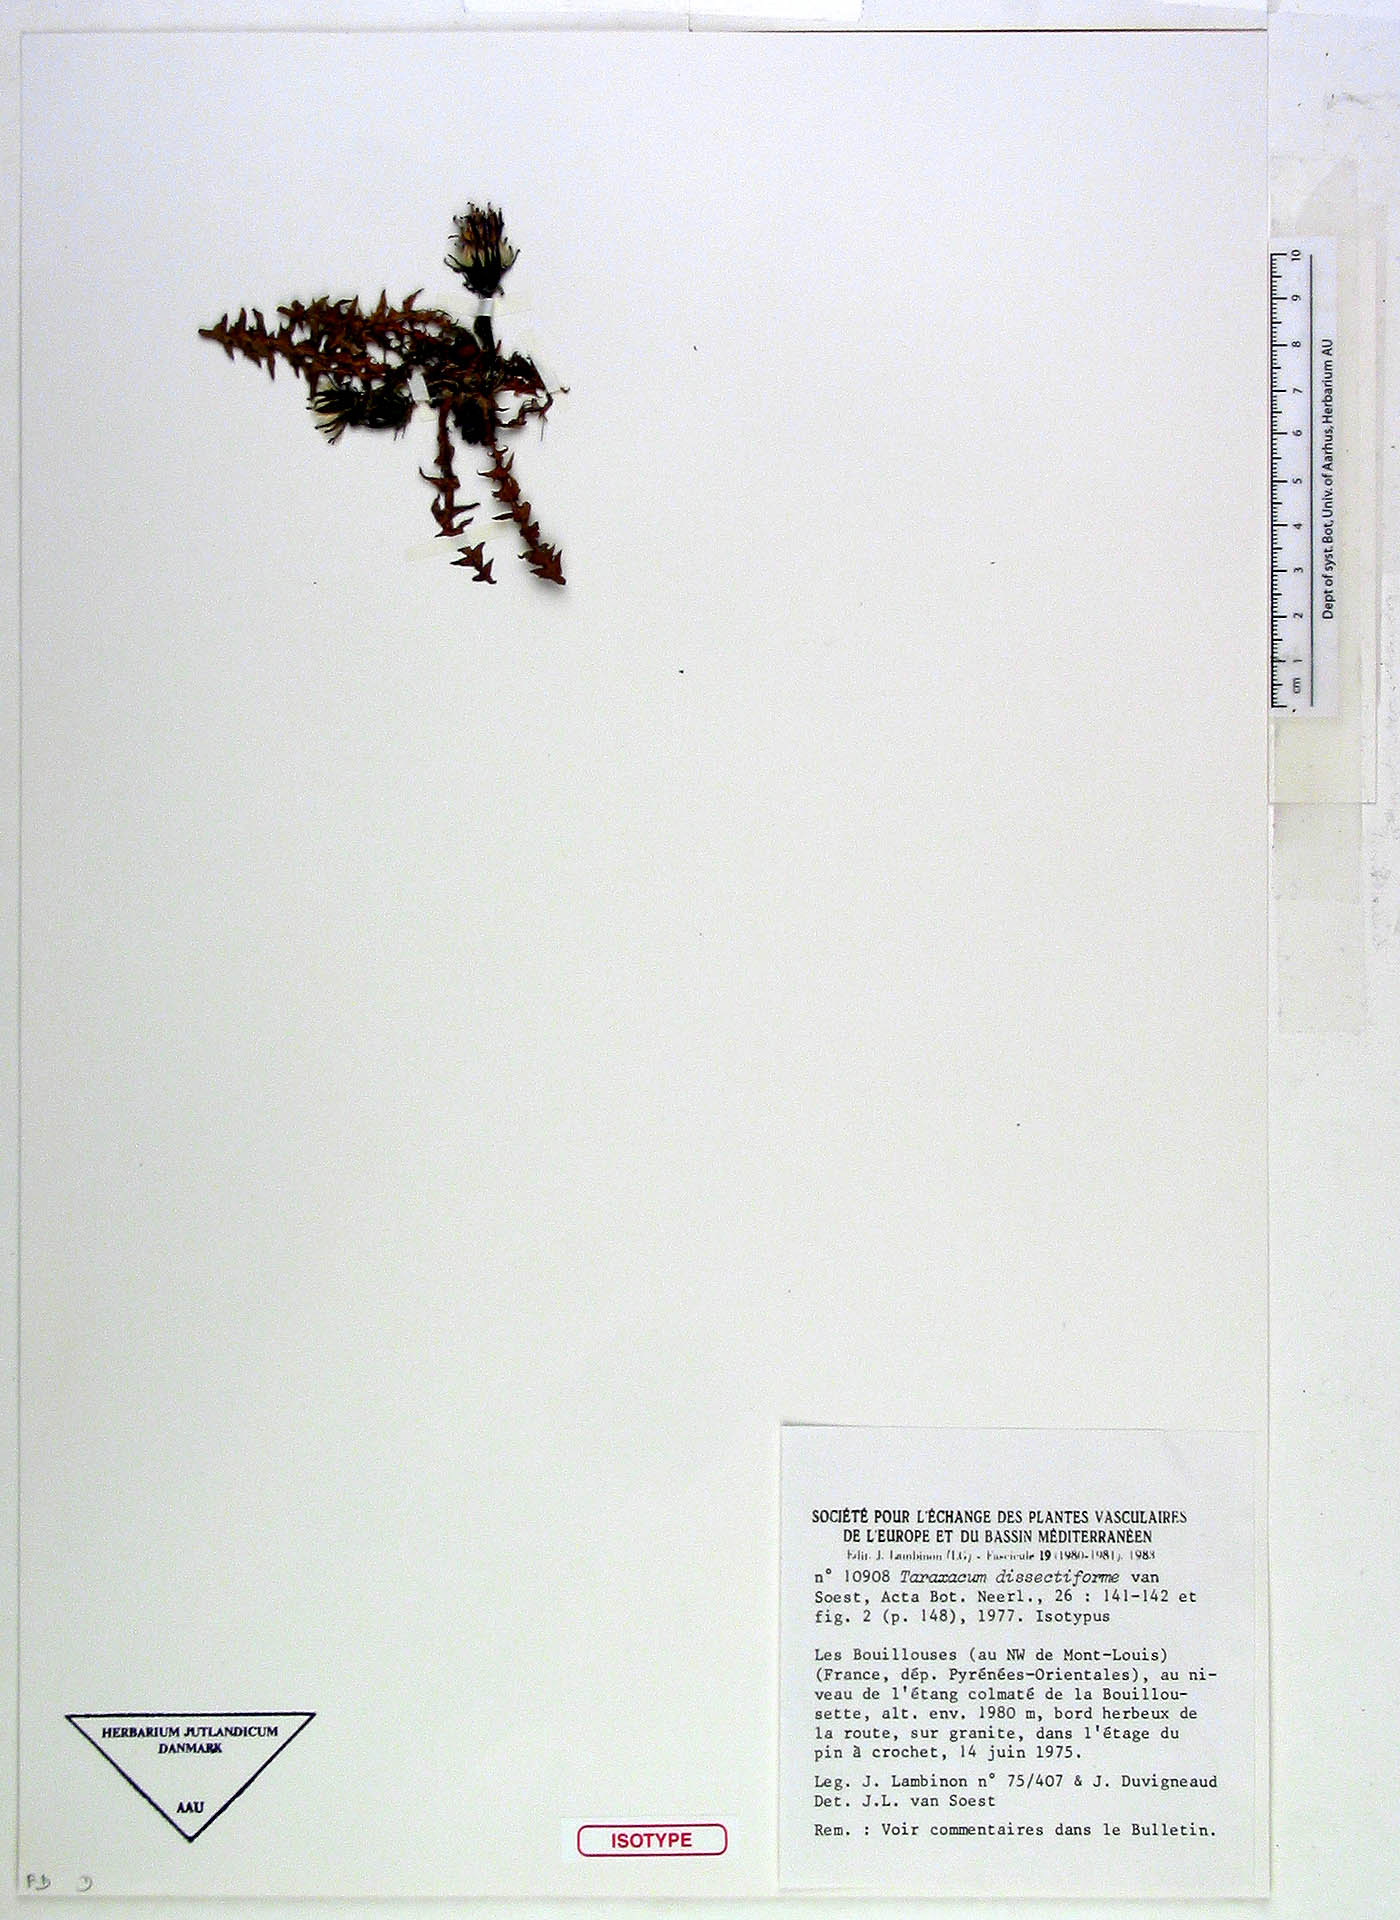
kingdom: Plantae
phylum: Tracheophyta
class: Magnoliopsida
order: Asterales
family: Asteraceae
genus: Taraxacum
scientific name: Taraxacum dissectiforme
